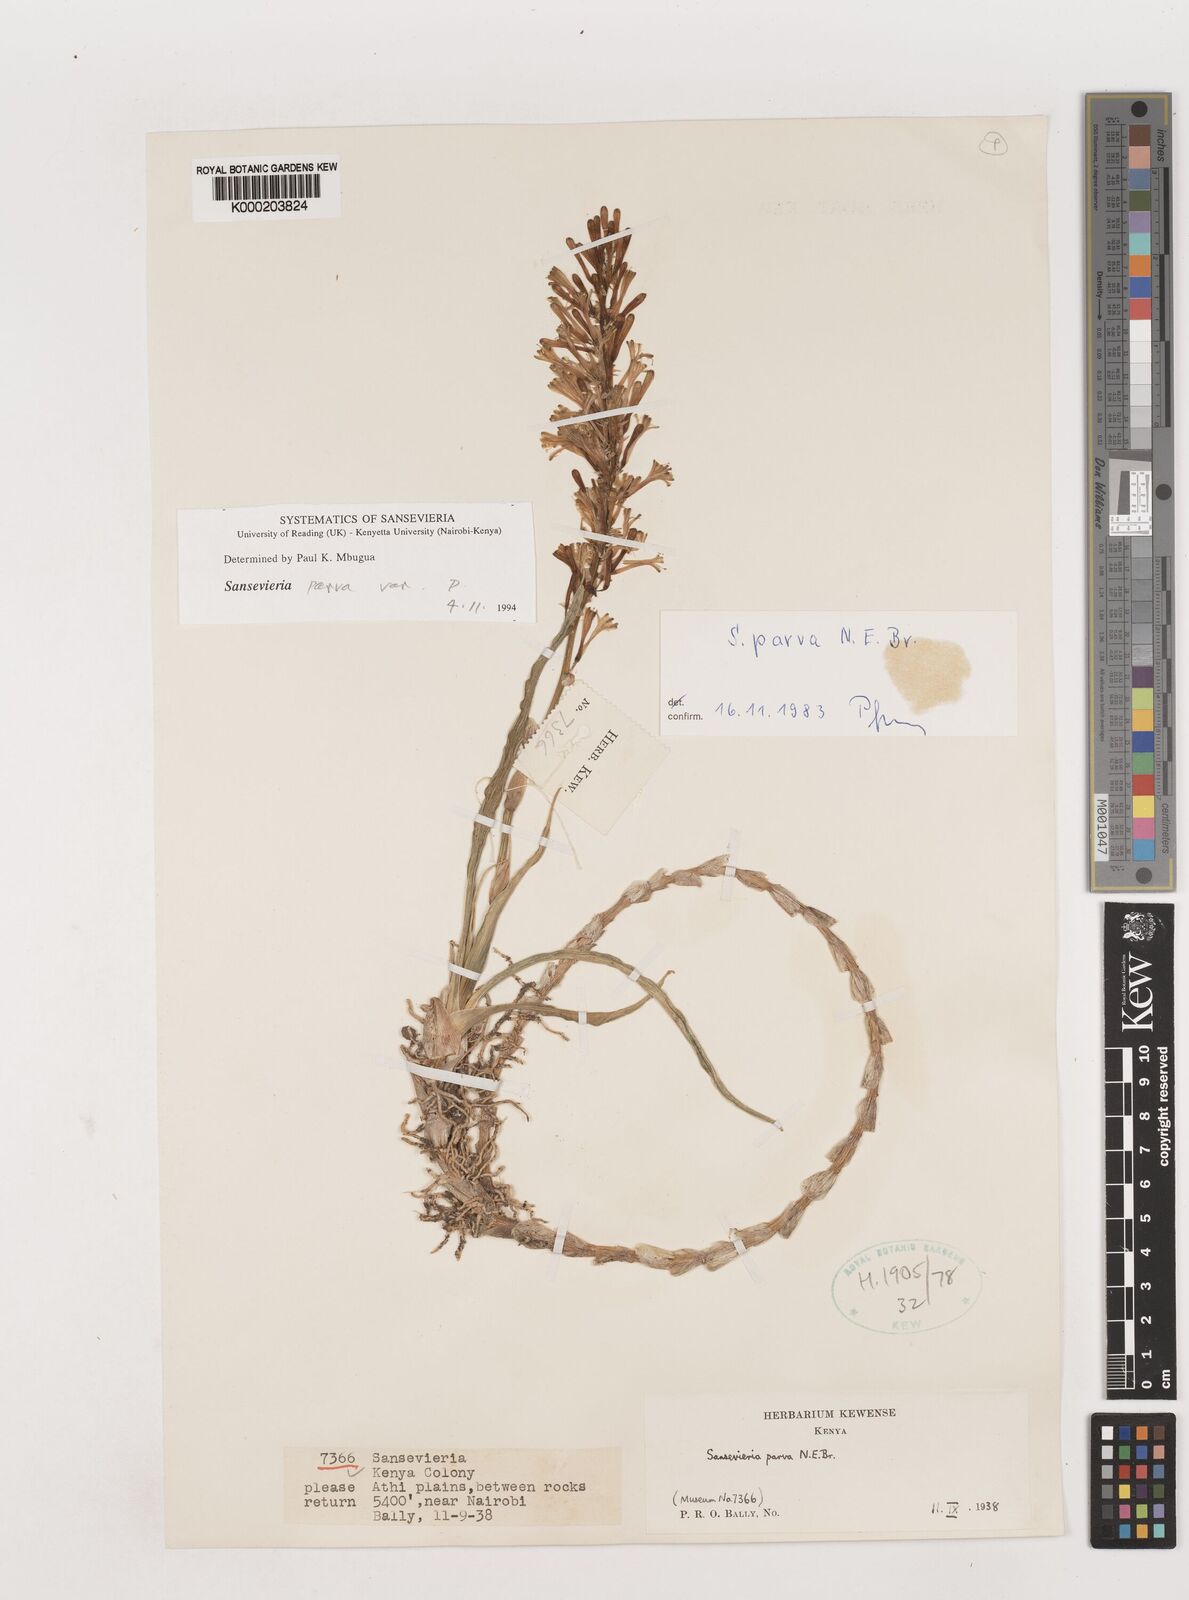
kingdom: Plantae
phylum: Tracheophyta
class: Liliopsida
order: Asparagales
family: Asparagaceae
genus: Dracaena
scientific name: Dracaena parva
